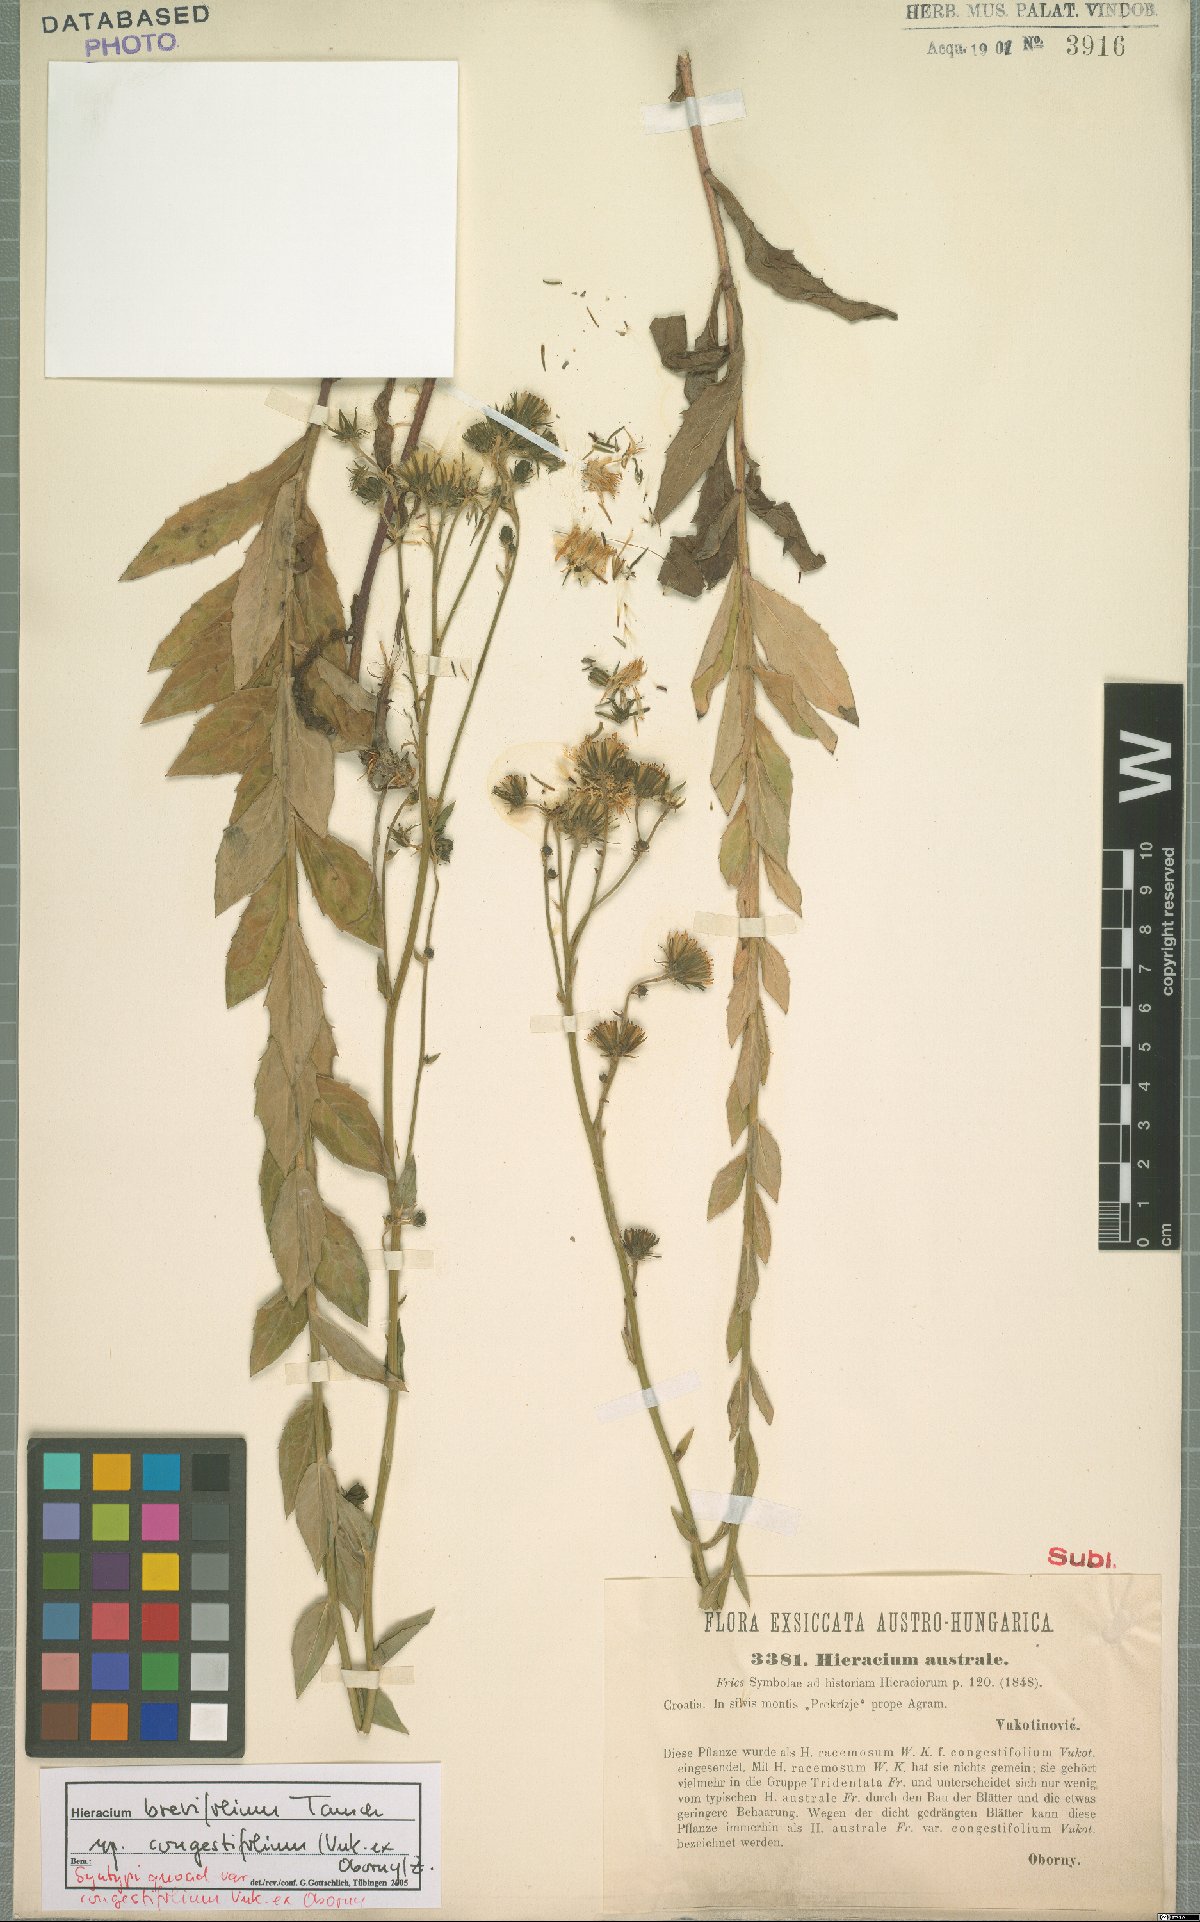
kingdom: Plantae
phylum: Tracheophyta
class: Magnoliopsida
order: Asterales
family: Asteraceae
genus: Hieracium
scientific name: Hieracium brevifolium
